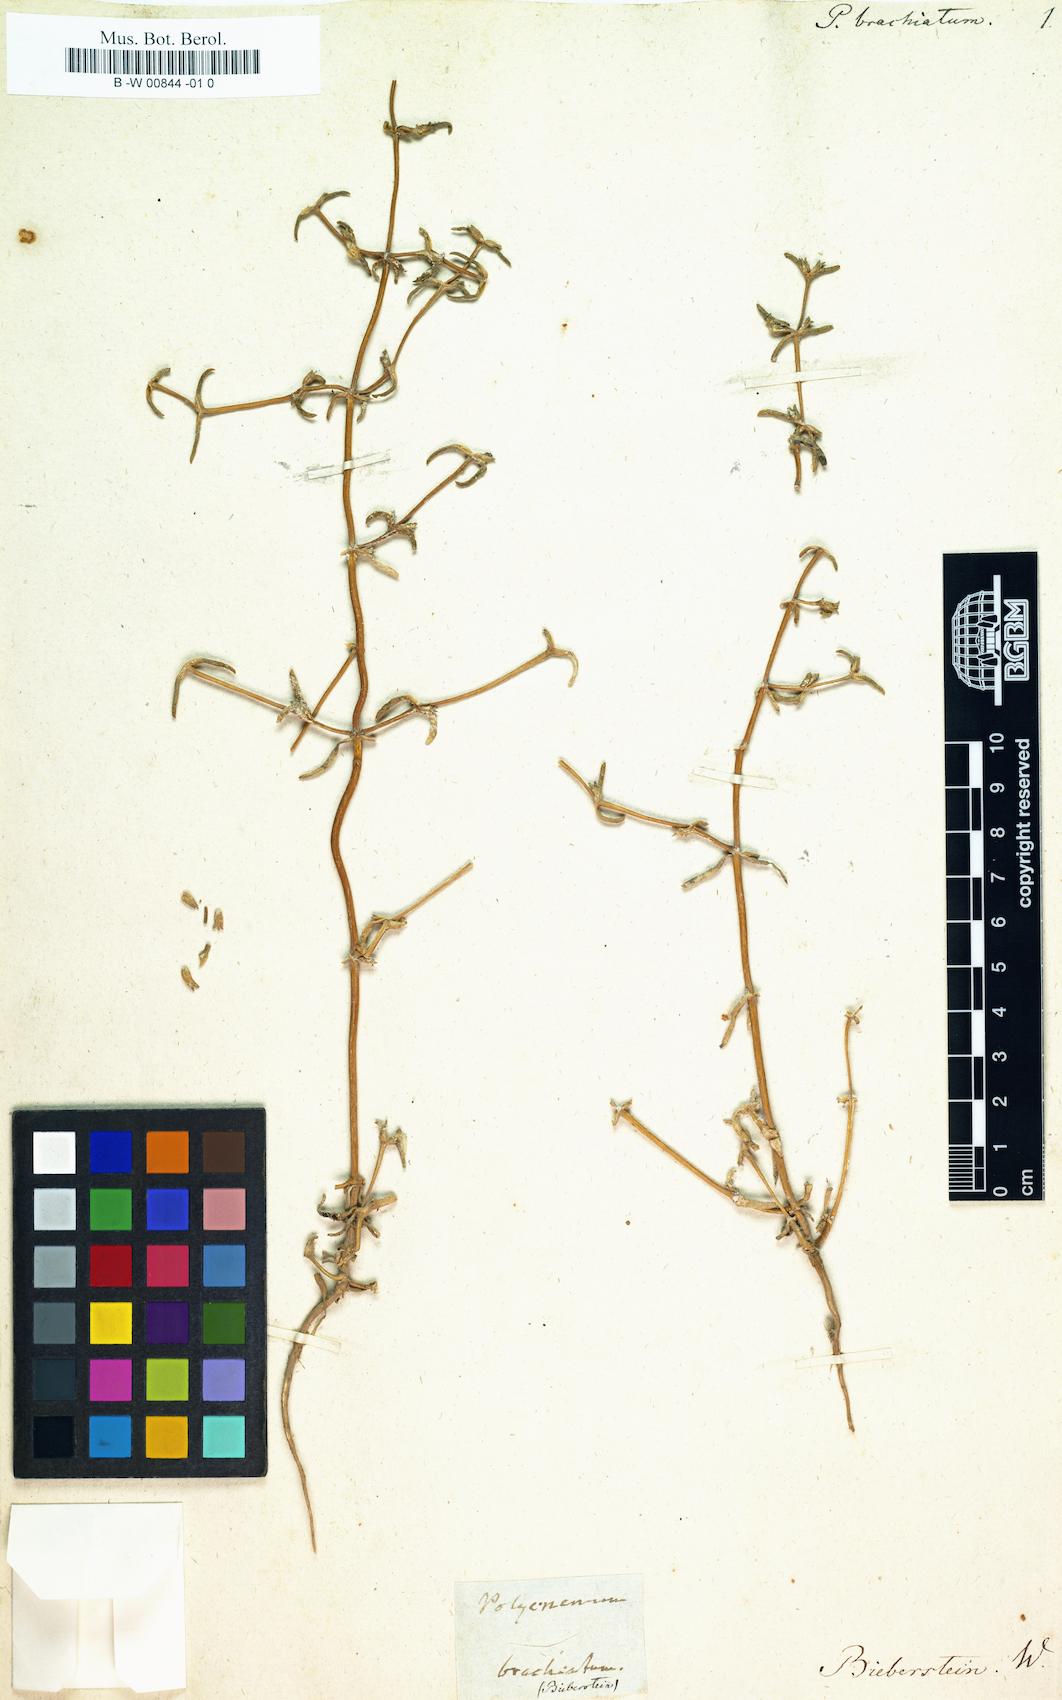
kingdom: Plantae
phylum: Tracheophyta
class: Magnoliopsida
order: Caryophyllales
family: Amaranthaceae
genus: Petrosimonia
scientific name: Petrosimonia brachiata
